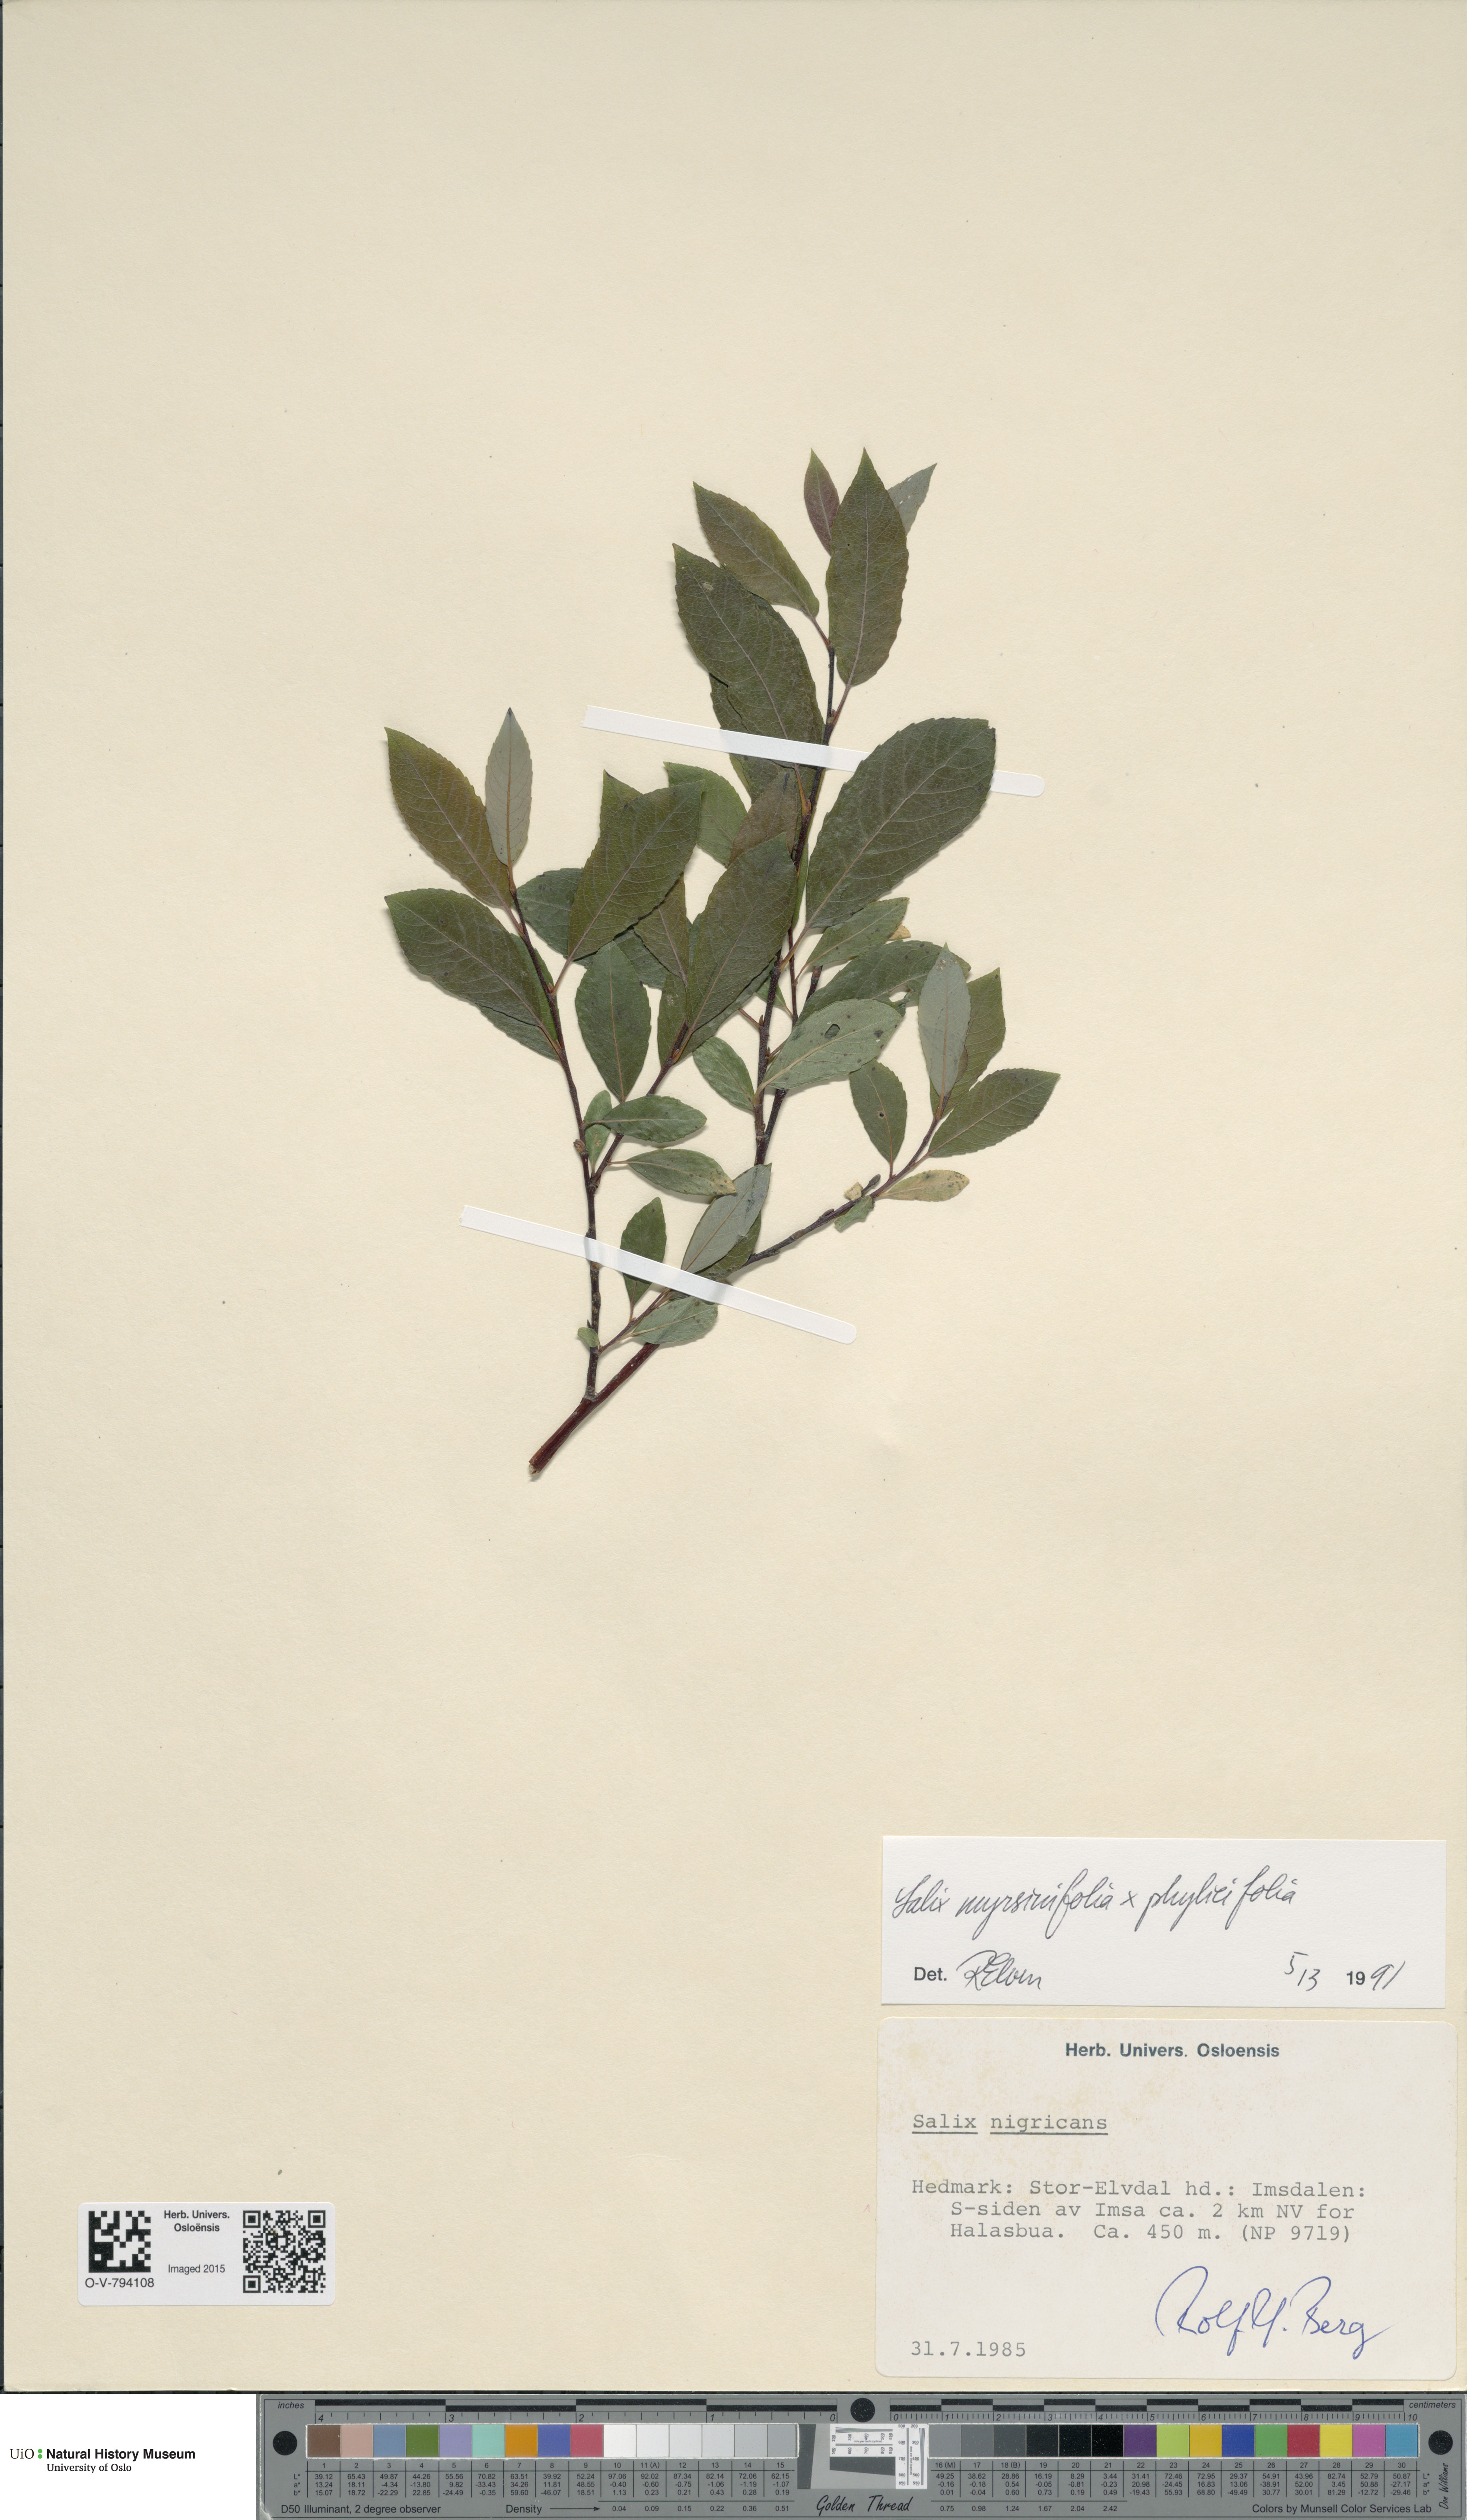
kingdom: Plantae
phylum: Tracheophyta
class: Magnoliopsida
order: Malpighiales
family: Salicaceae
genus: Salix
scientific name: Salix
